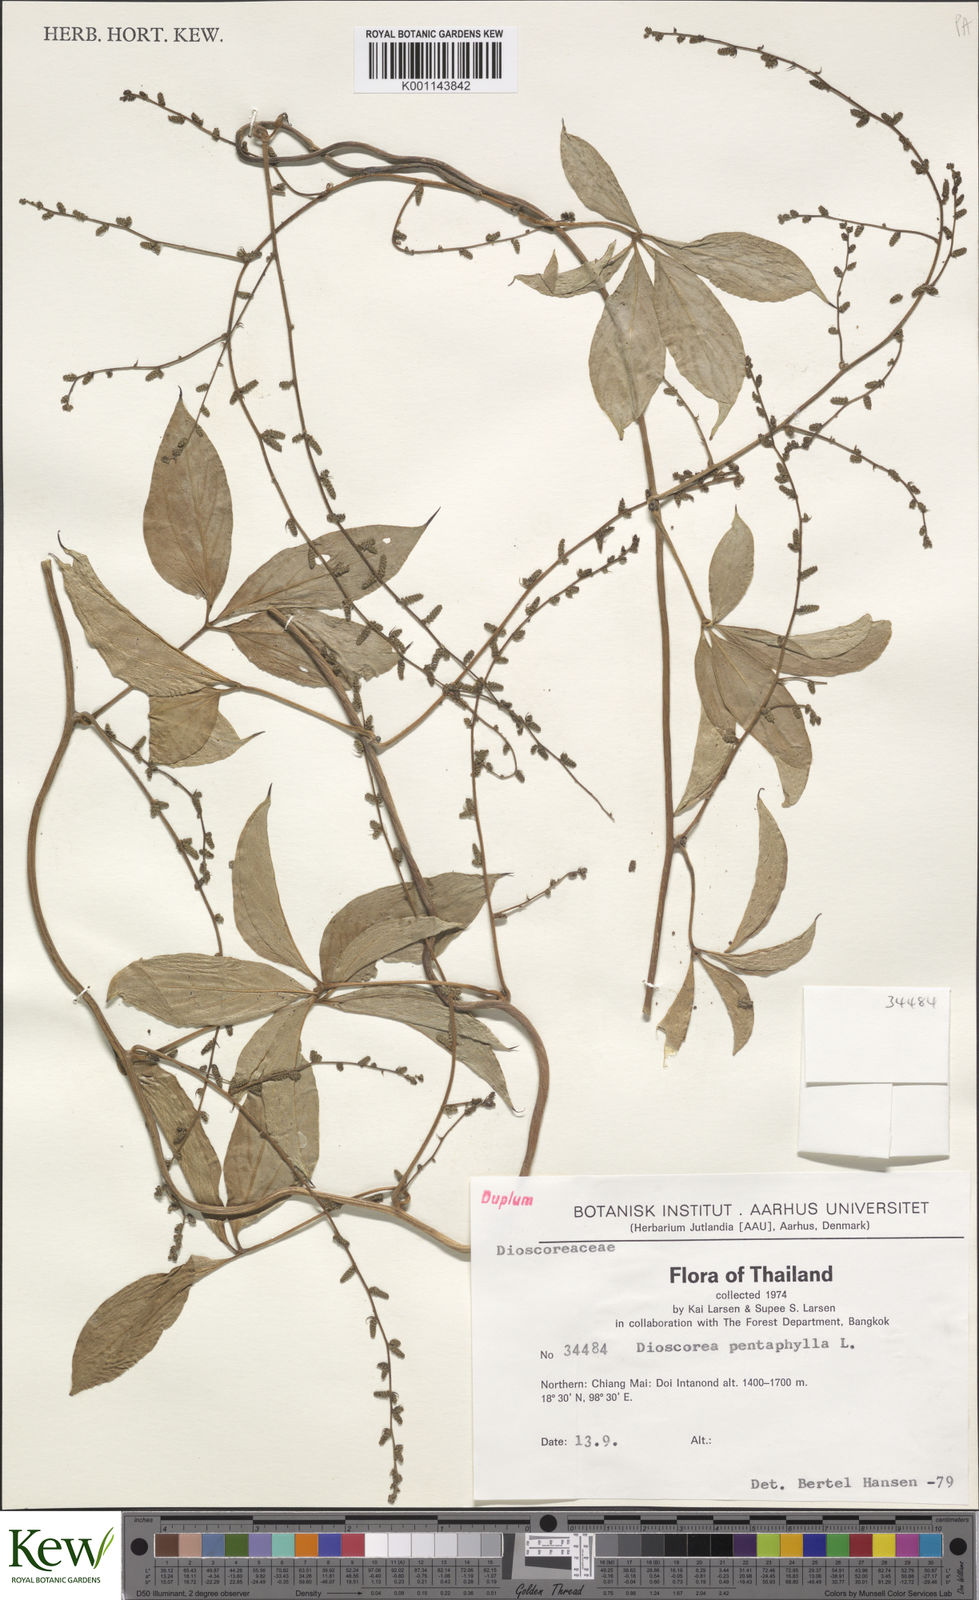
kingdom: Plantae
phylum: Tracheophyta
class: Liliopsida
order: Dioscoreales
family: Dioscoreaceae
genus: Dioscorea
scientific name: Dioscorea pentaphylla
